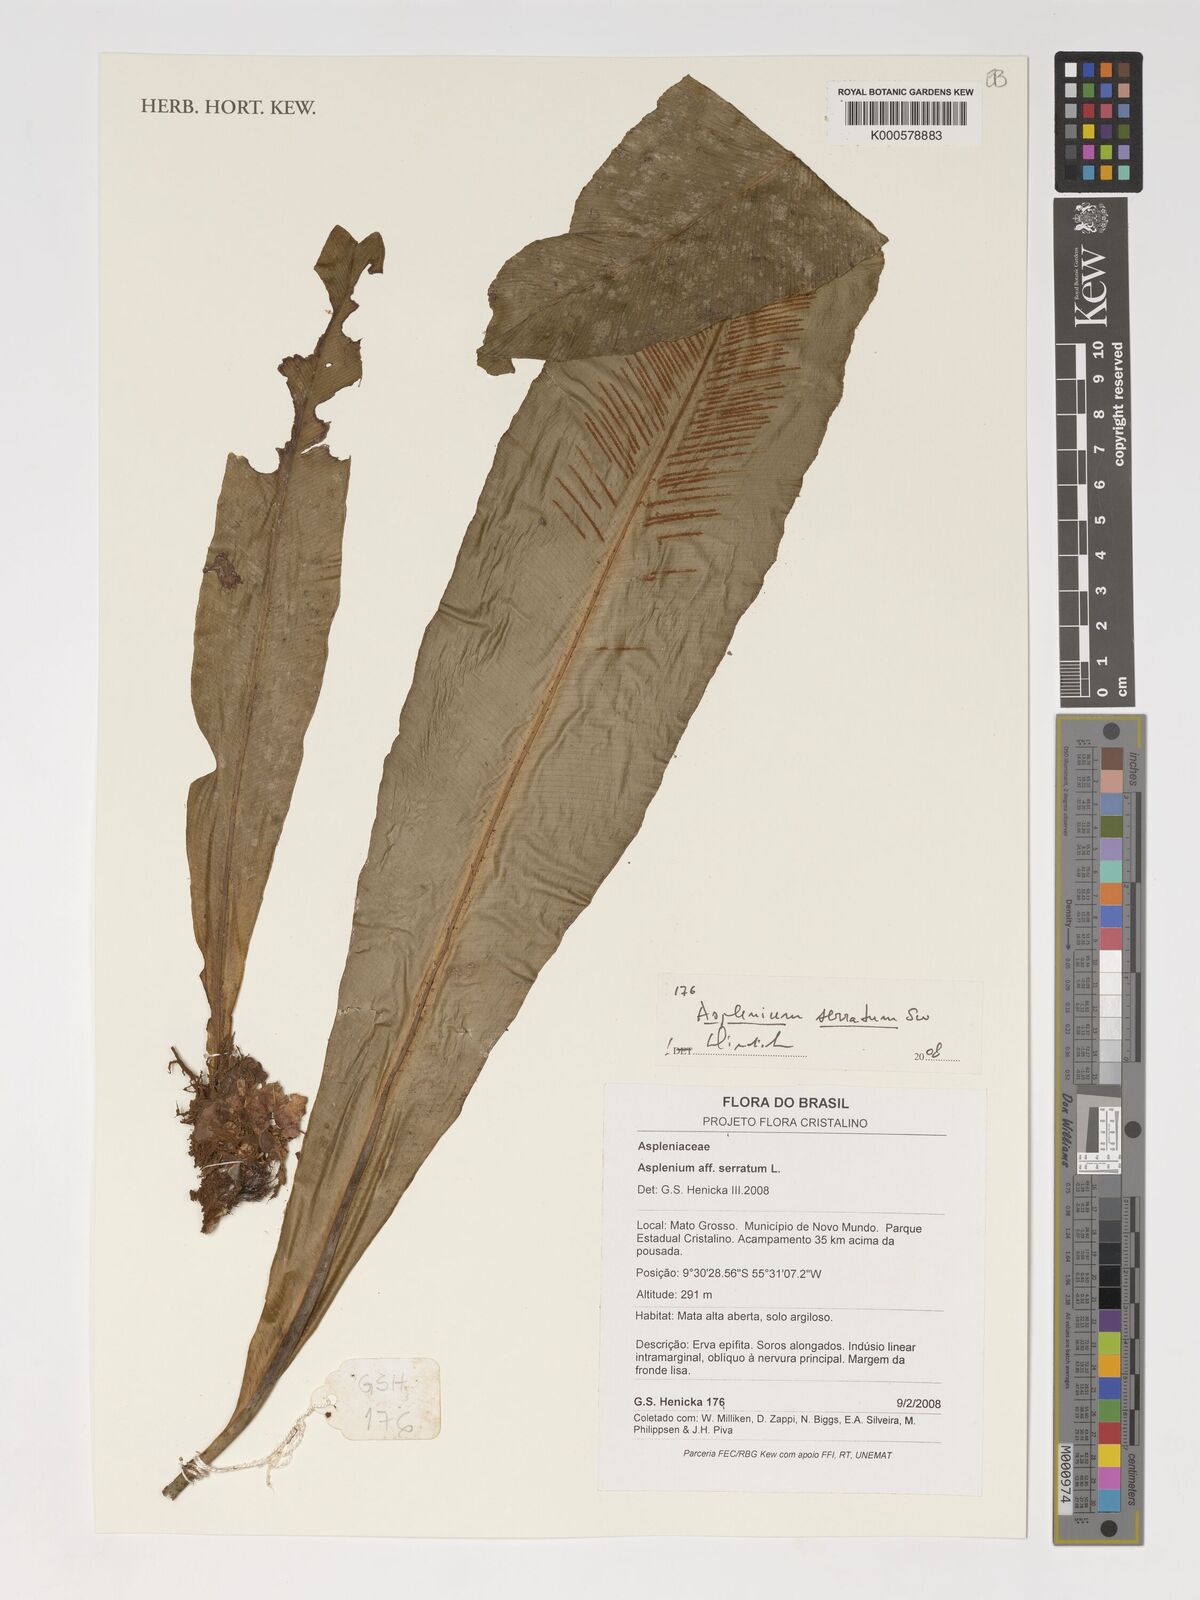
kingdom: Plantae
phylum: Tracheophyta
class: Polypodiopsida
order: Polypodiales
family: Aspleniaceae
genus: Asplenium
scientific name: Asplenium serratum
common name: Wild birdnest fern
